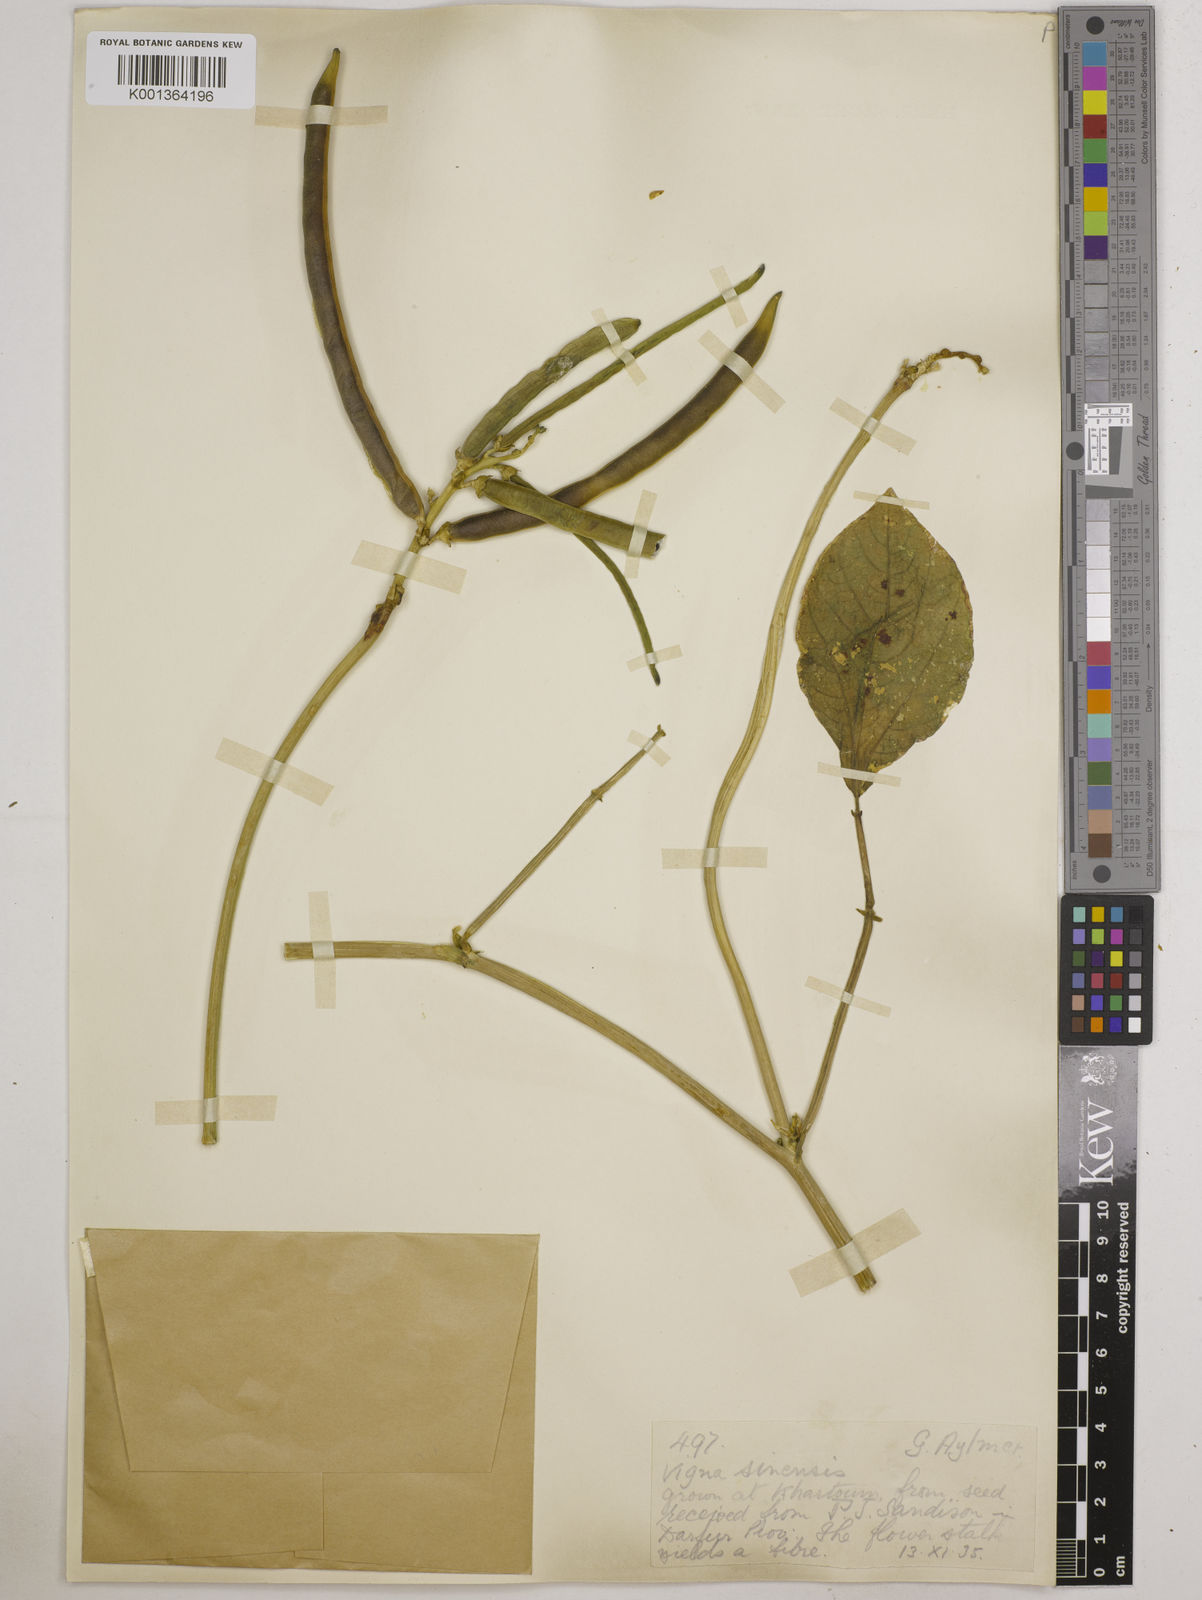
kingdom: Plantae
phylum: Tracheophyta
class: Magnoliopsida
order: Fabales
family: Fabaceae
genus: Vigna
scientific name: Vigna
